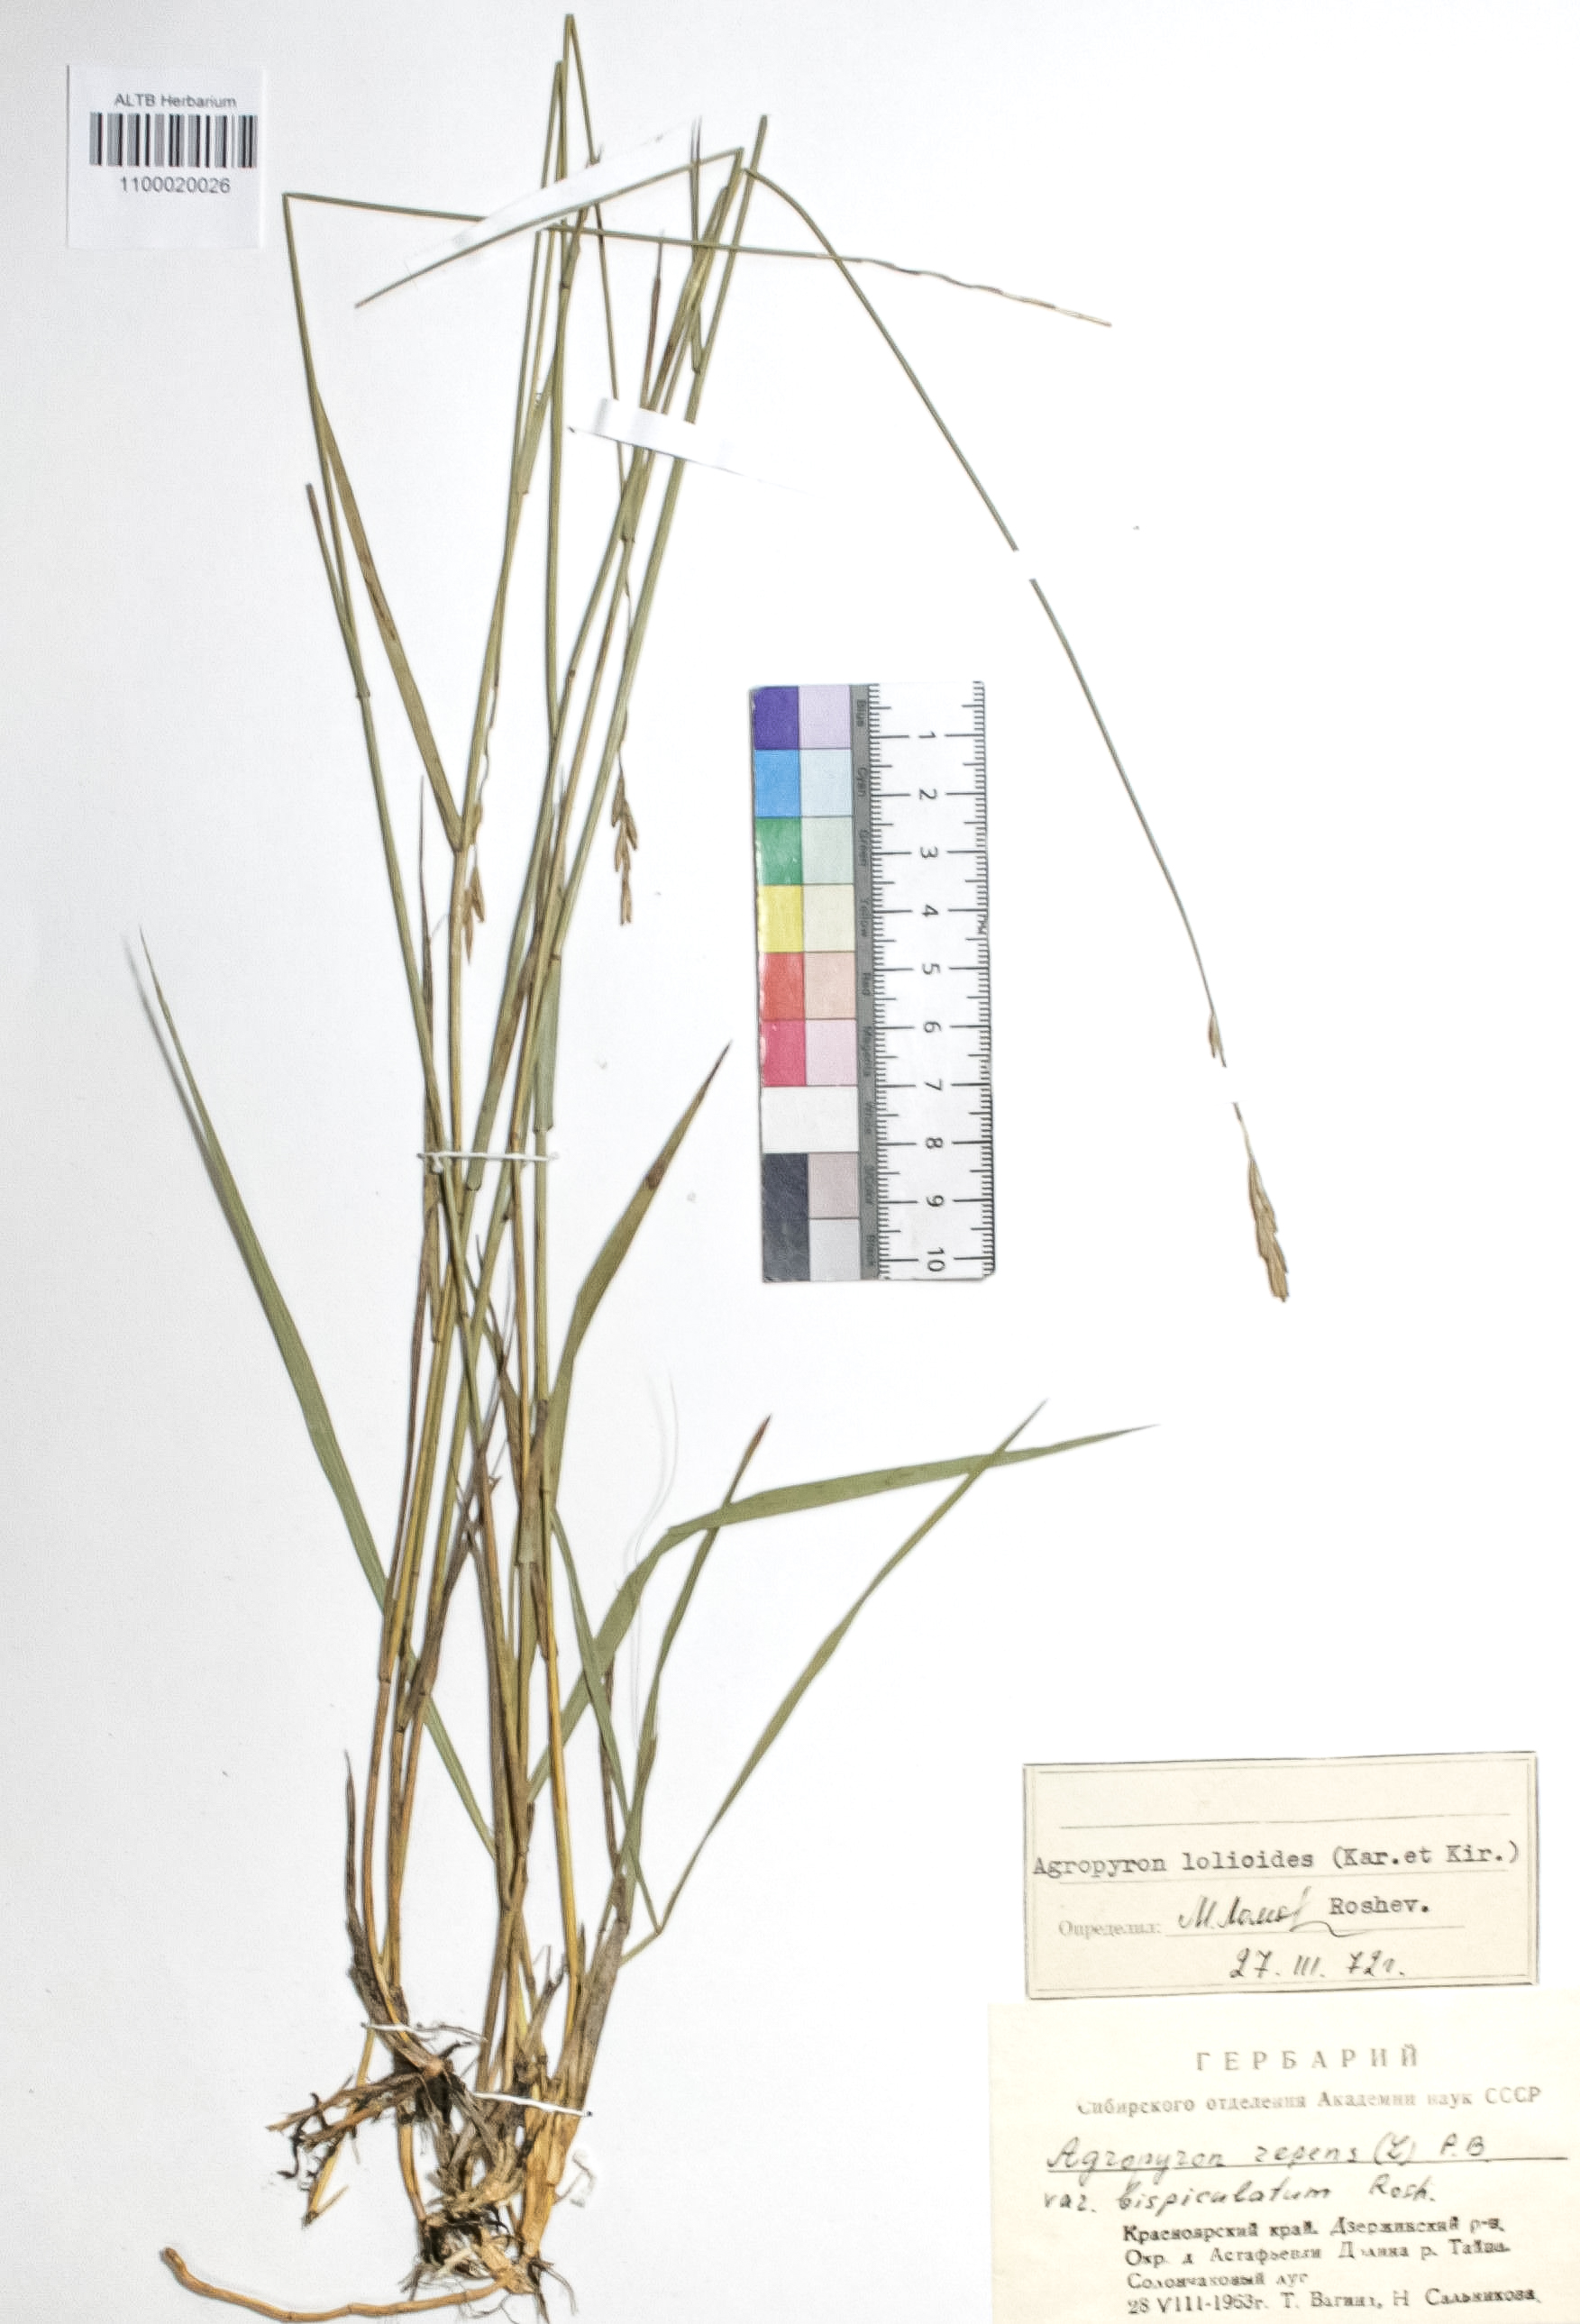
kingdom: Plantae
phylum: Tracheophyta
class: Liliopsida
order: Poales
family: Poaceae
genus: Elymus
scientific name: Elymus lolioides
